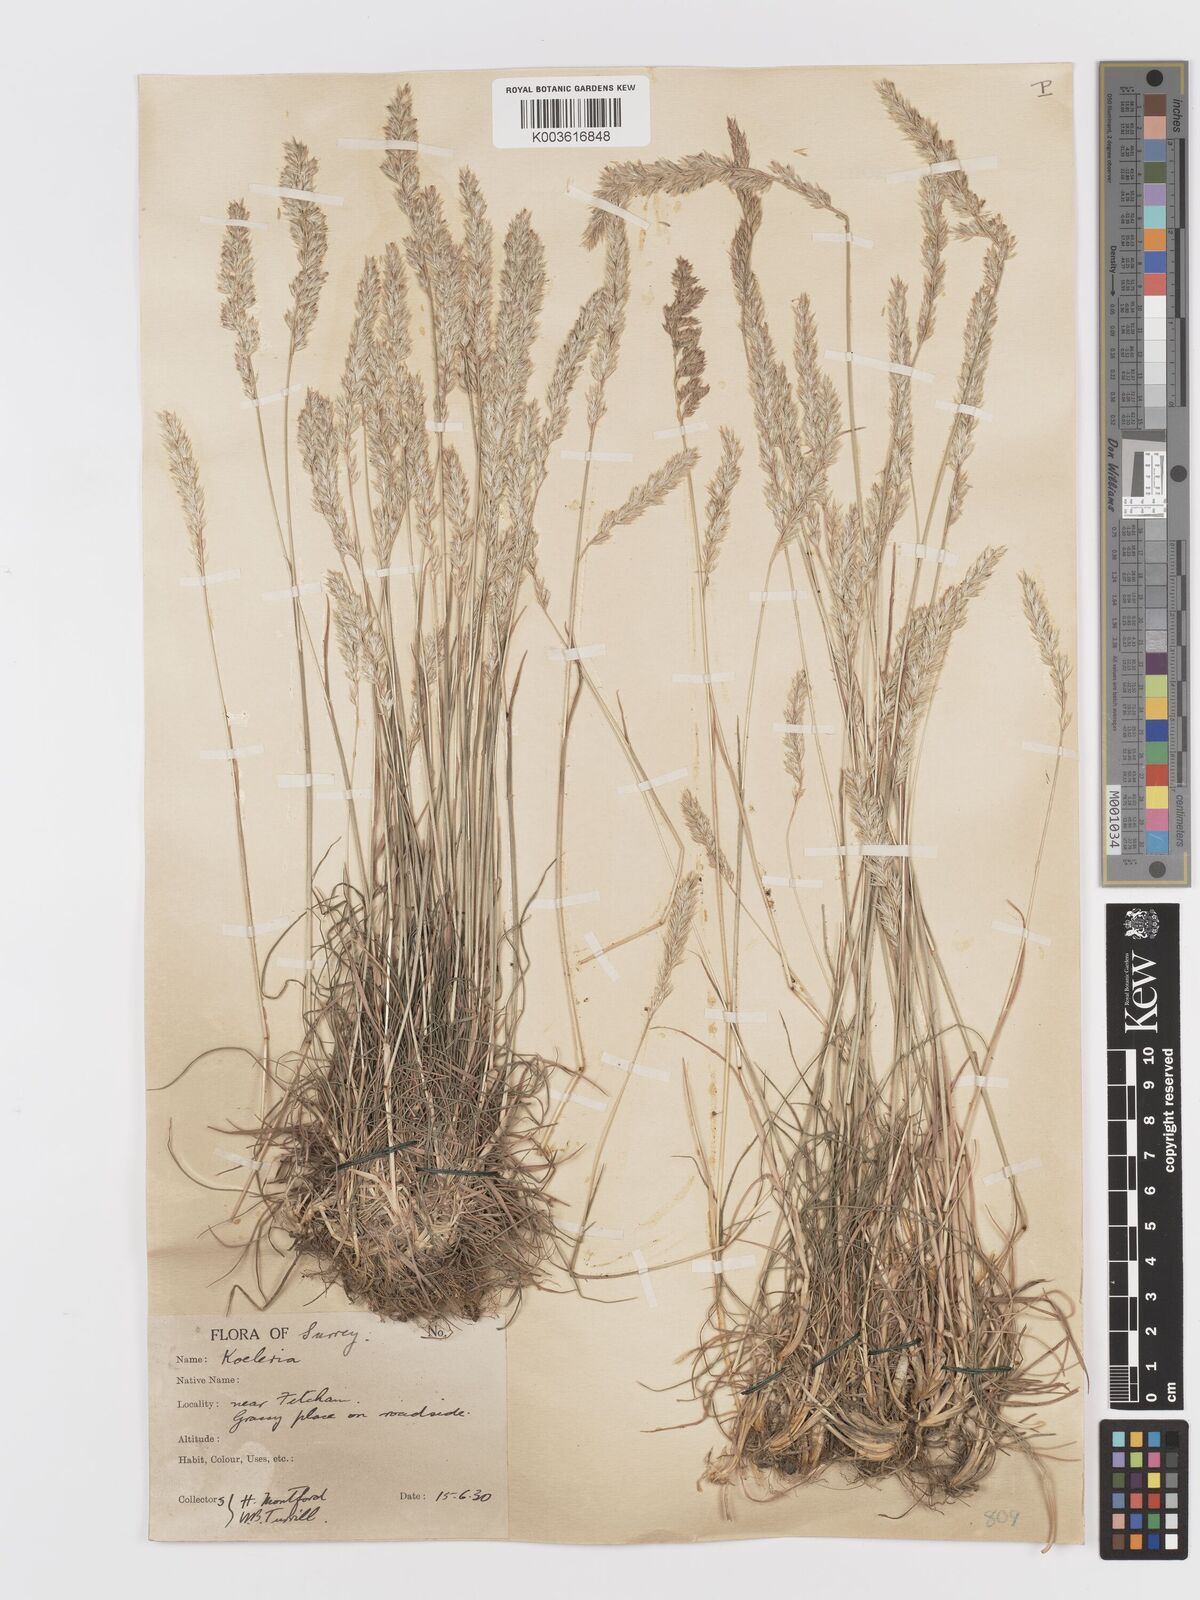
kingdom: Plantae
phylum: Tracheophyta
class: Liliopsida
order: Poales
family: Poaceae
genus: Koeleria
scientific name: Koeleria macrantha
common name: Crested hair-grass
